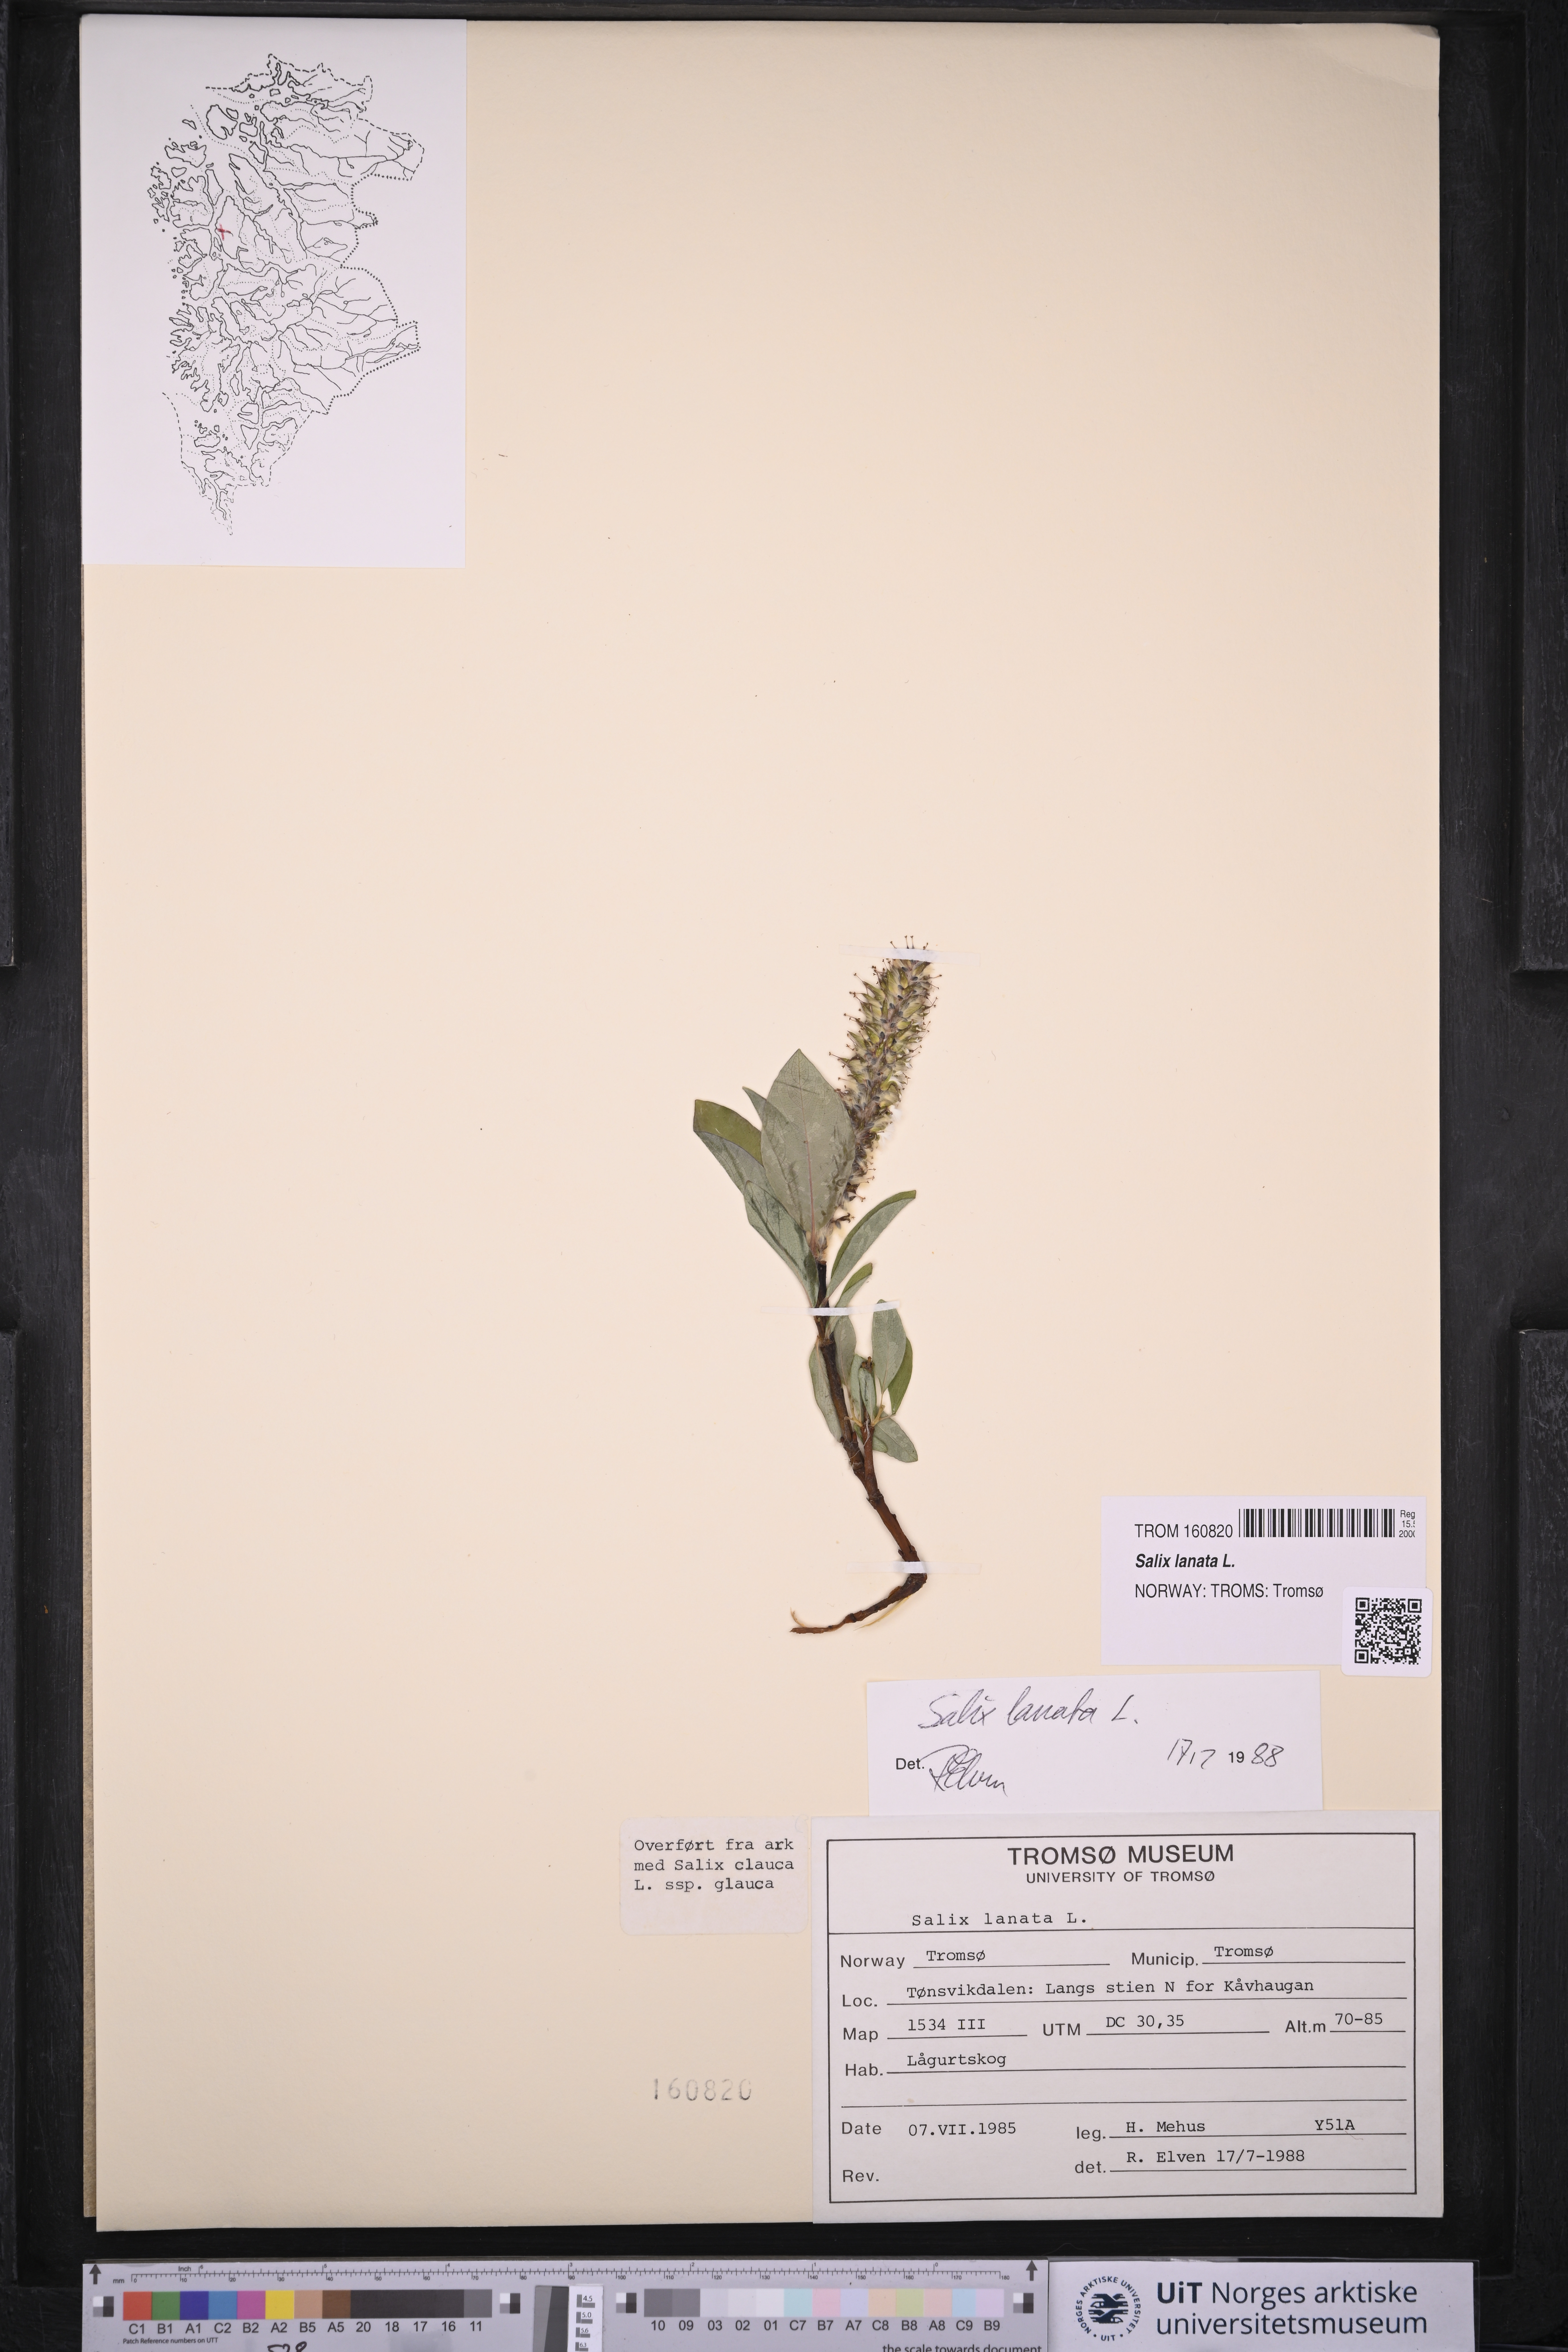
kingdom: Plantae
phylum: Tracheophyta
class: Magnoliopsida
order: Malpighiales
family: Salicaceae
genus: Salix
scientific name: Salix lanata
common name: Woolly willow
